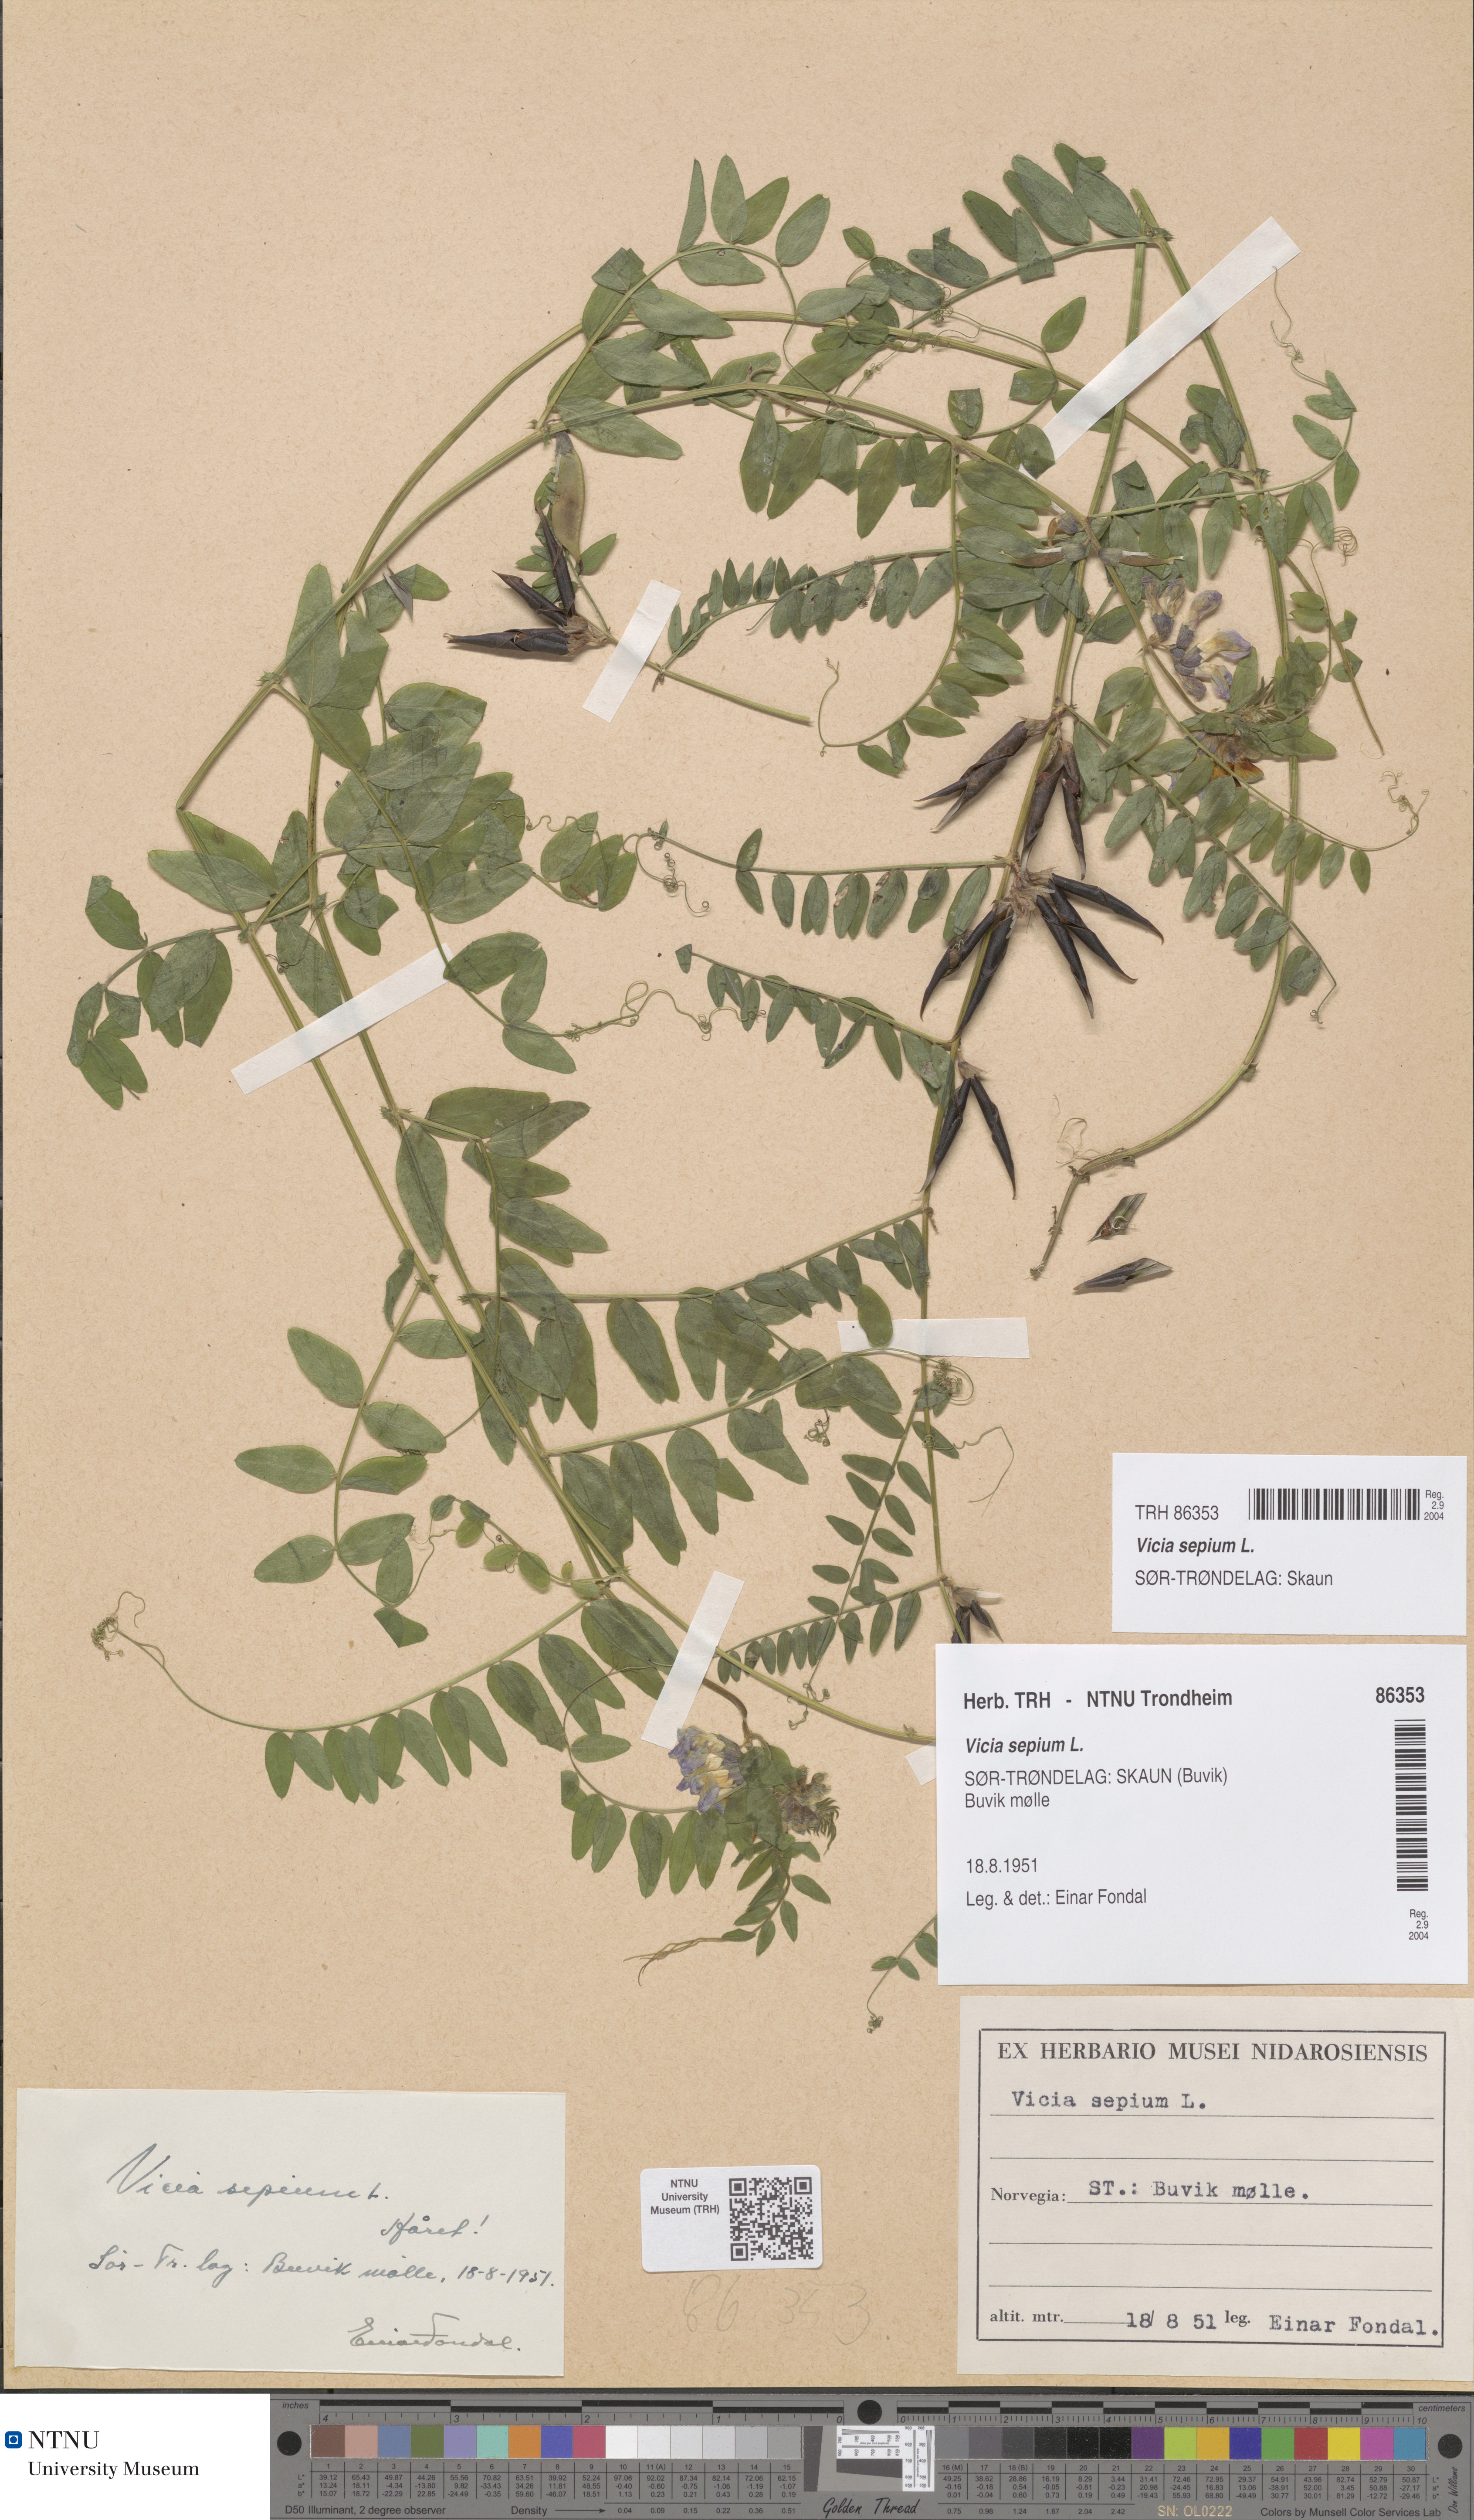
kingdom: Plantae
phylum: Tracheophyta
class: Magnoliopsida
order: Fabales
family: Fabaceae
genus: Vicia
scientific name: Vicia sepium
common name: Bush vetch
